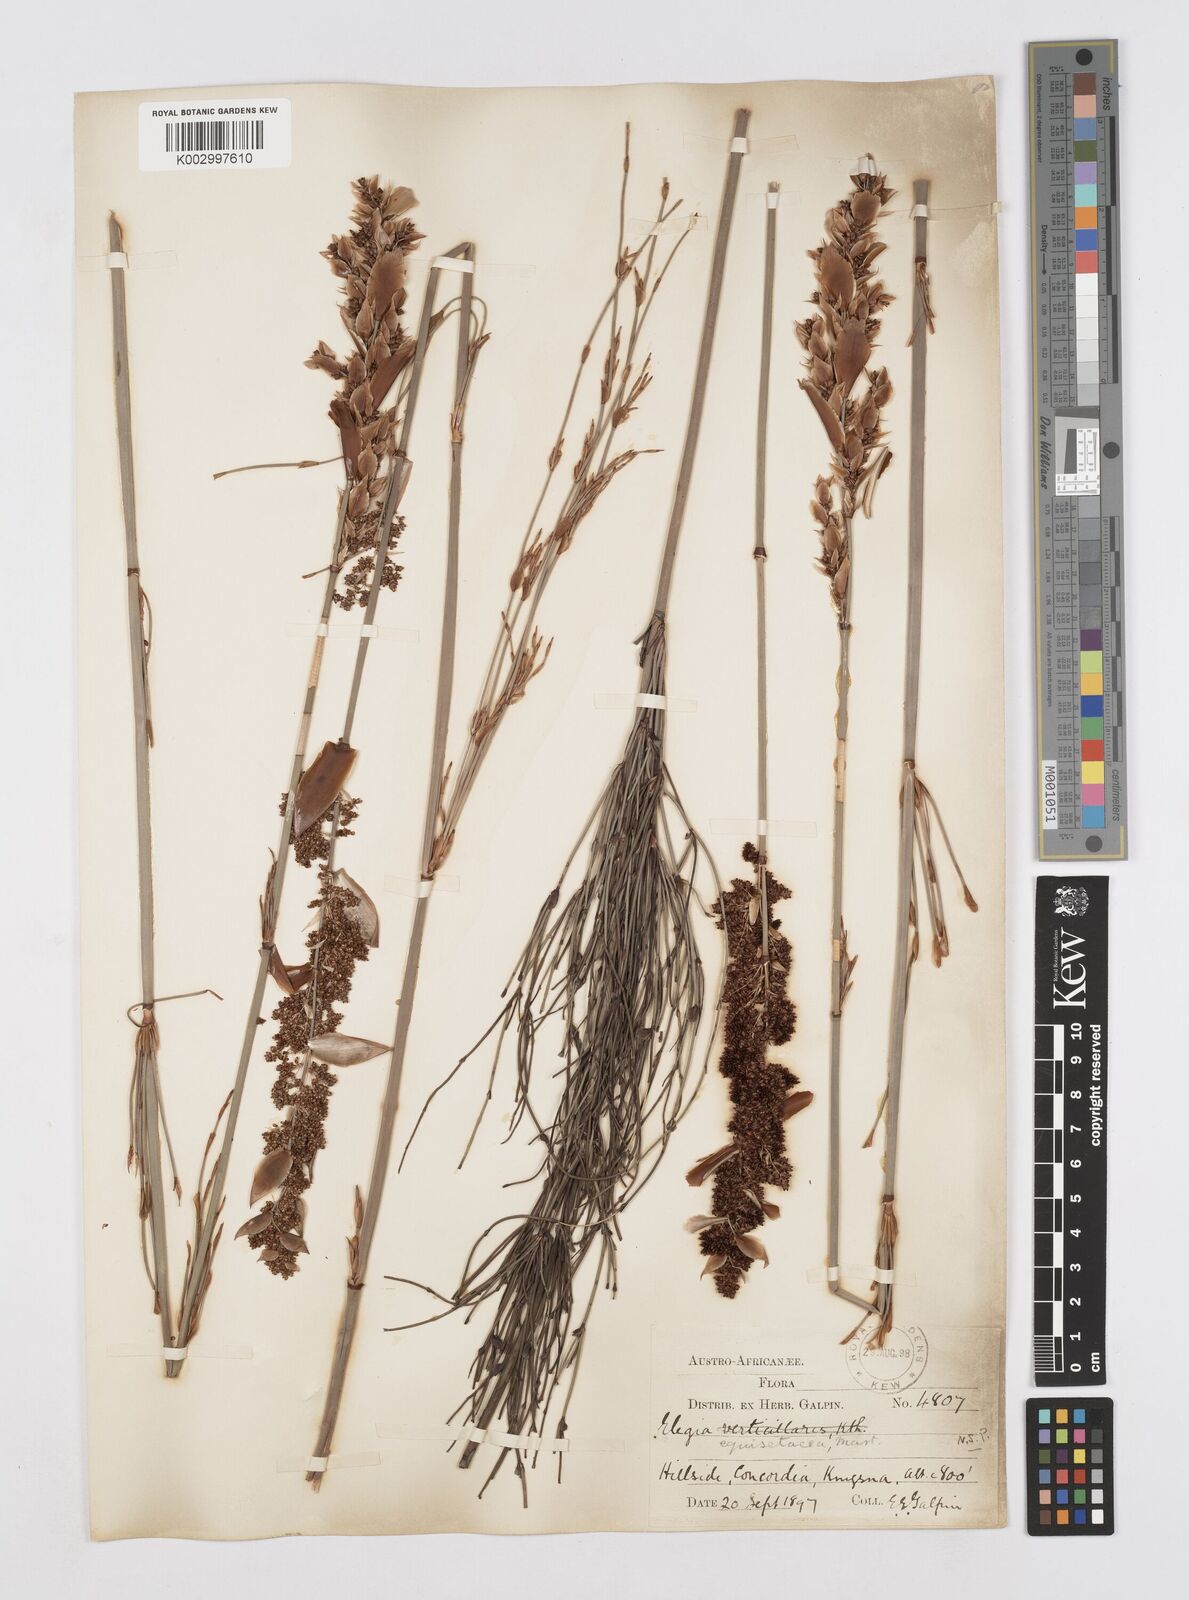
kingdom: Plantae
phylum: Tracheophyta
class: Liliopsida
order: Poales
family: Restionaceae
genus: Elegia
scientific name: Elegia equisetacea
